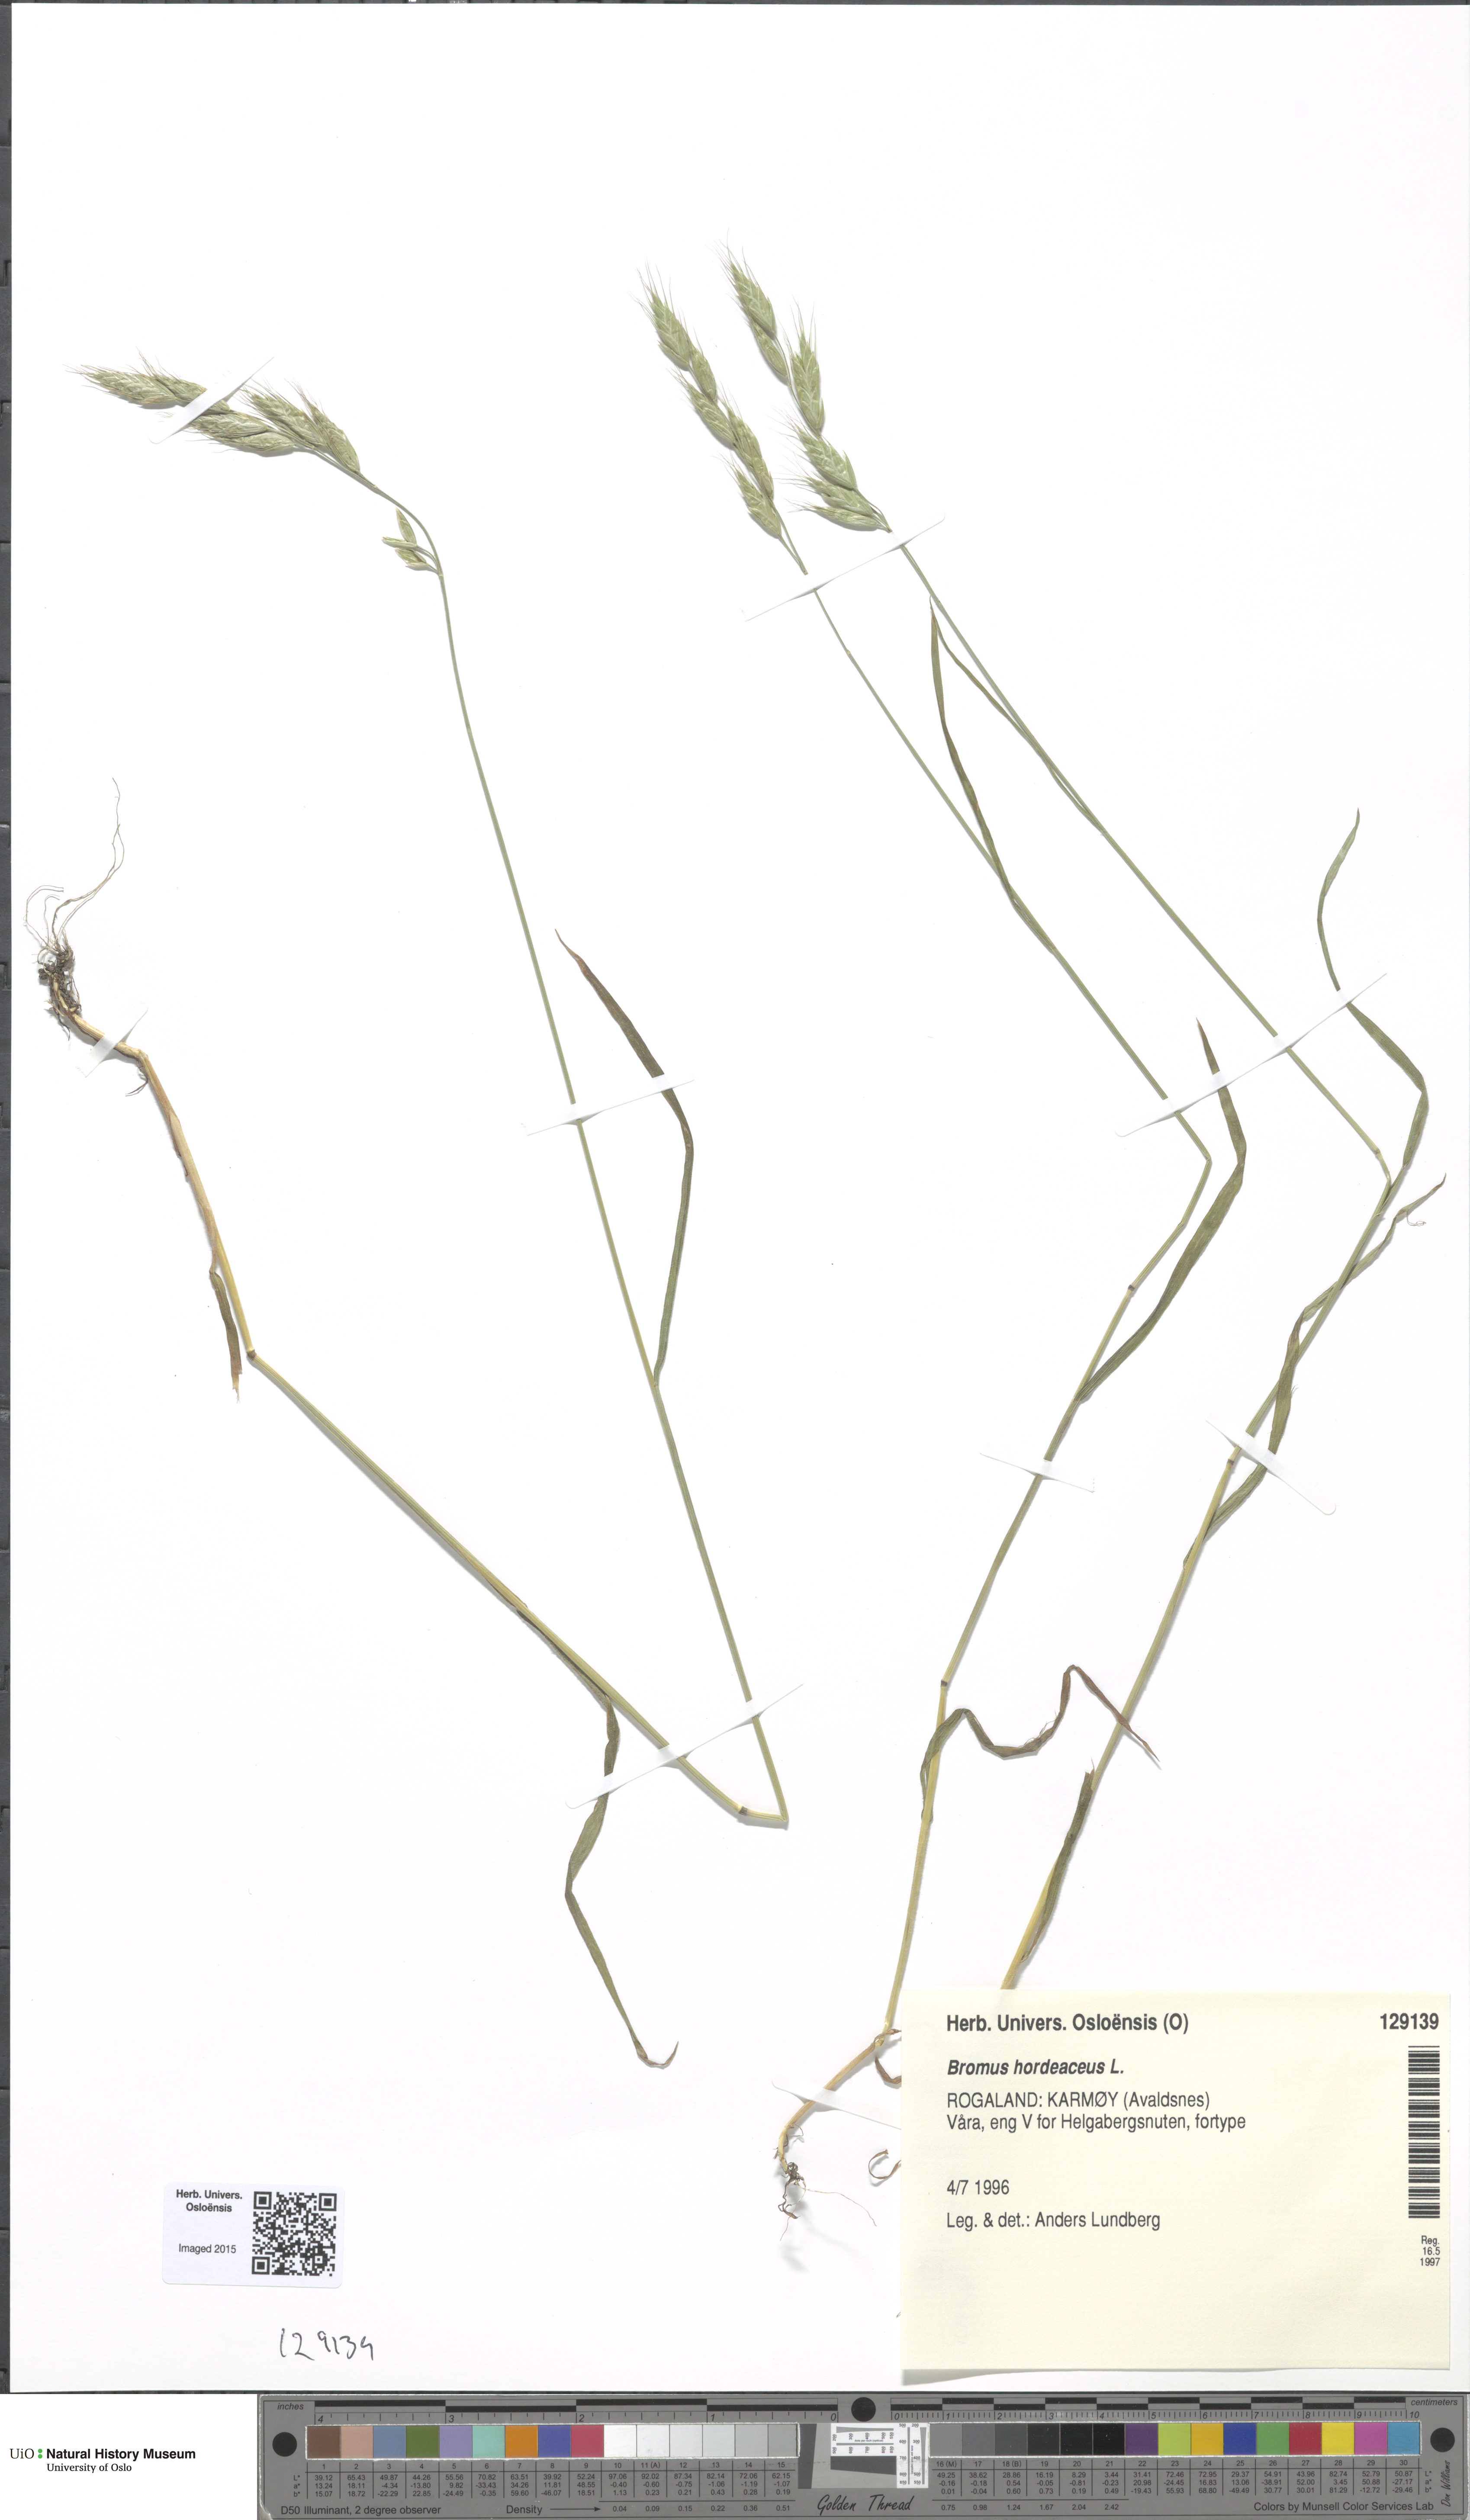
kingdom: Plantae
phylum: Tracheophyta
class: Liliopsida
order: Poales
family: Poaceae
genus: Bromus
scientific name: Bromus hordeaceus
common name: Soft brome
